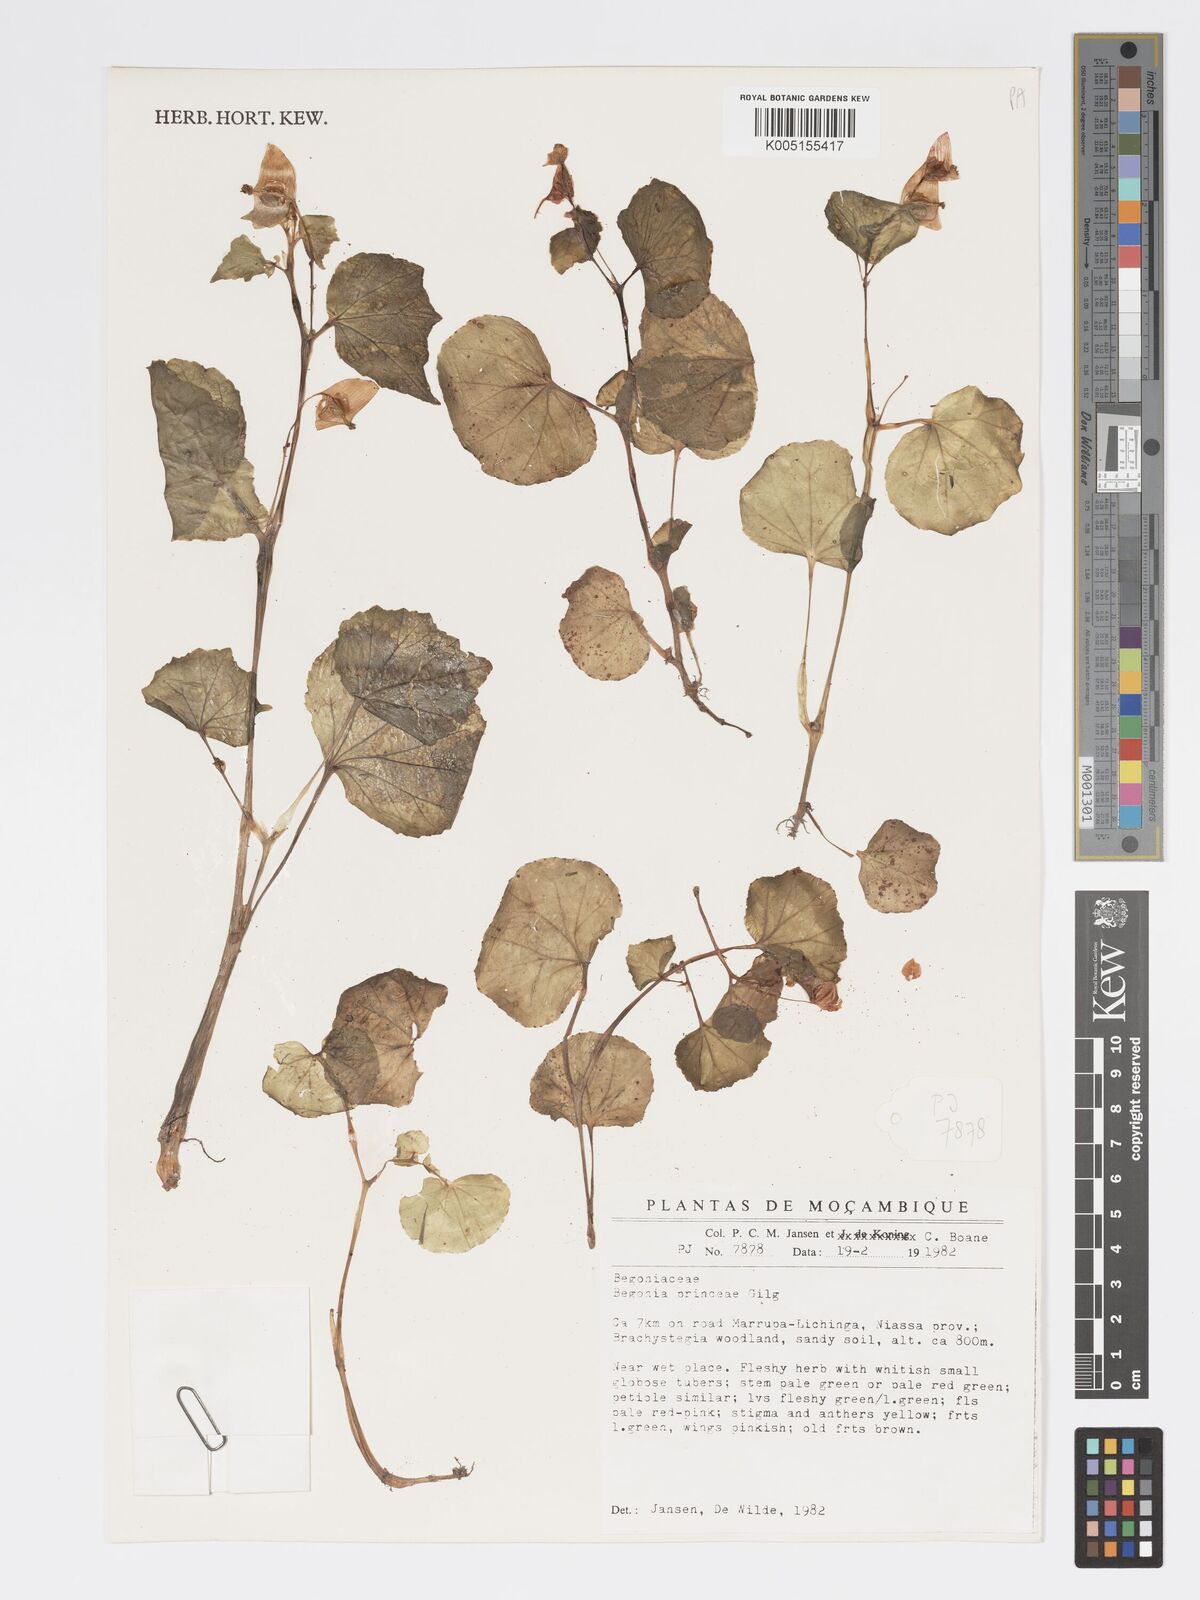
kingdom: Plantae
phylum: Tracheophyta
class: Magnoliopsida
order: Cucurbitales
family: Begoniaceae
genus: Begonia
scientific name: Begonia princeae
